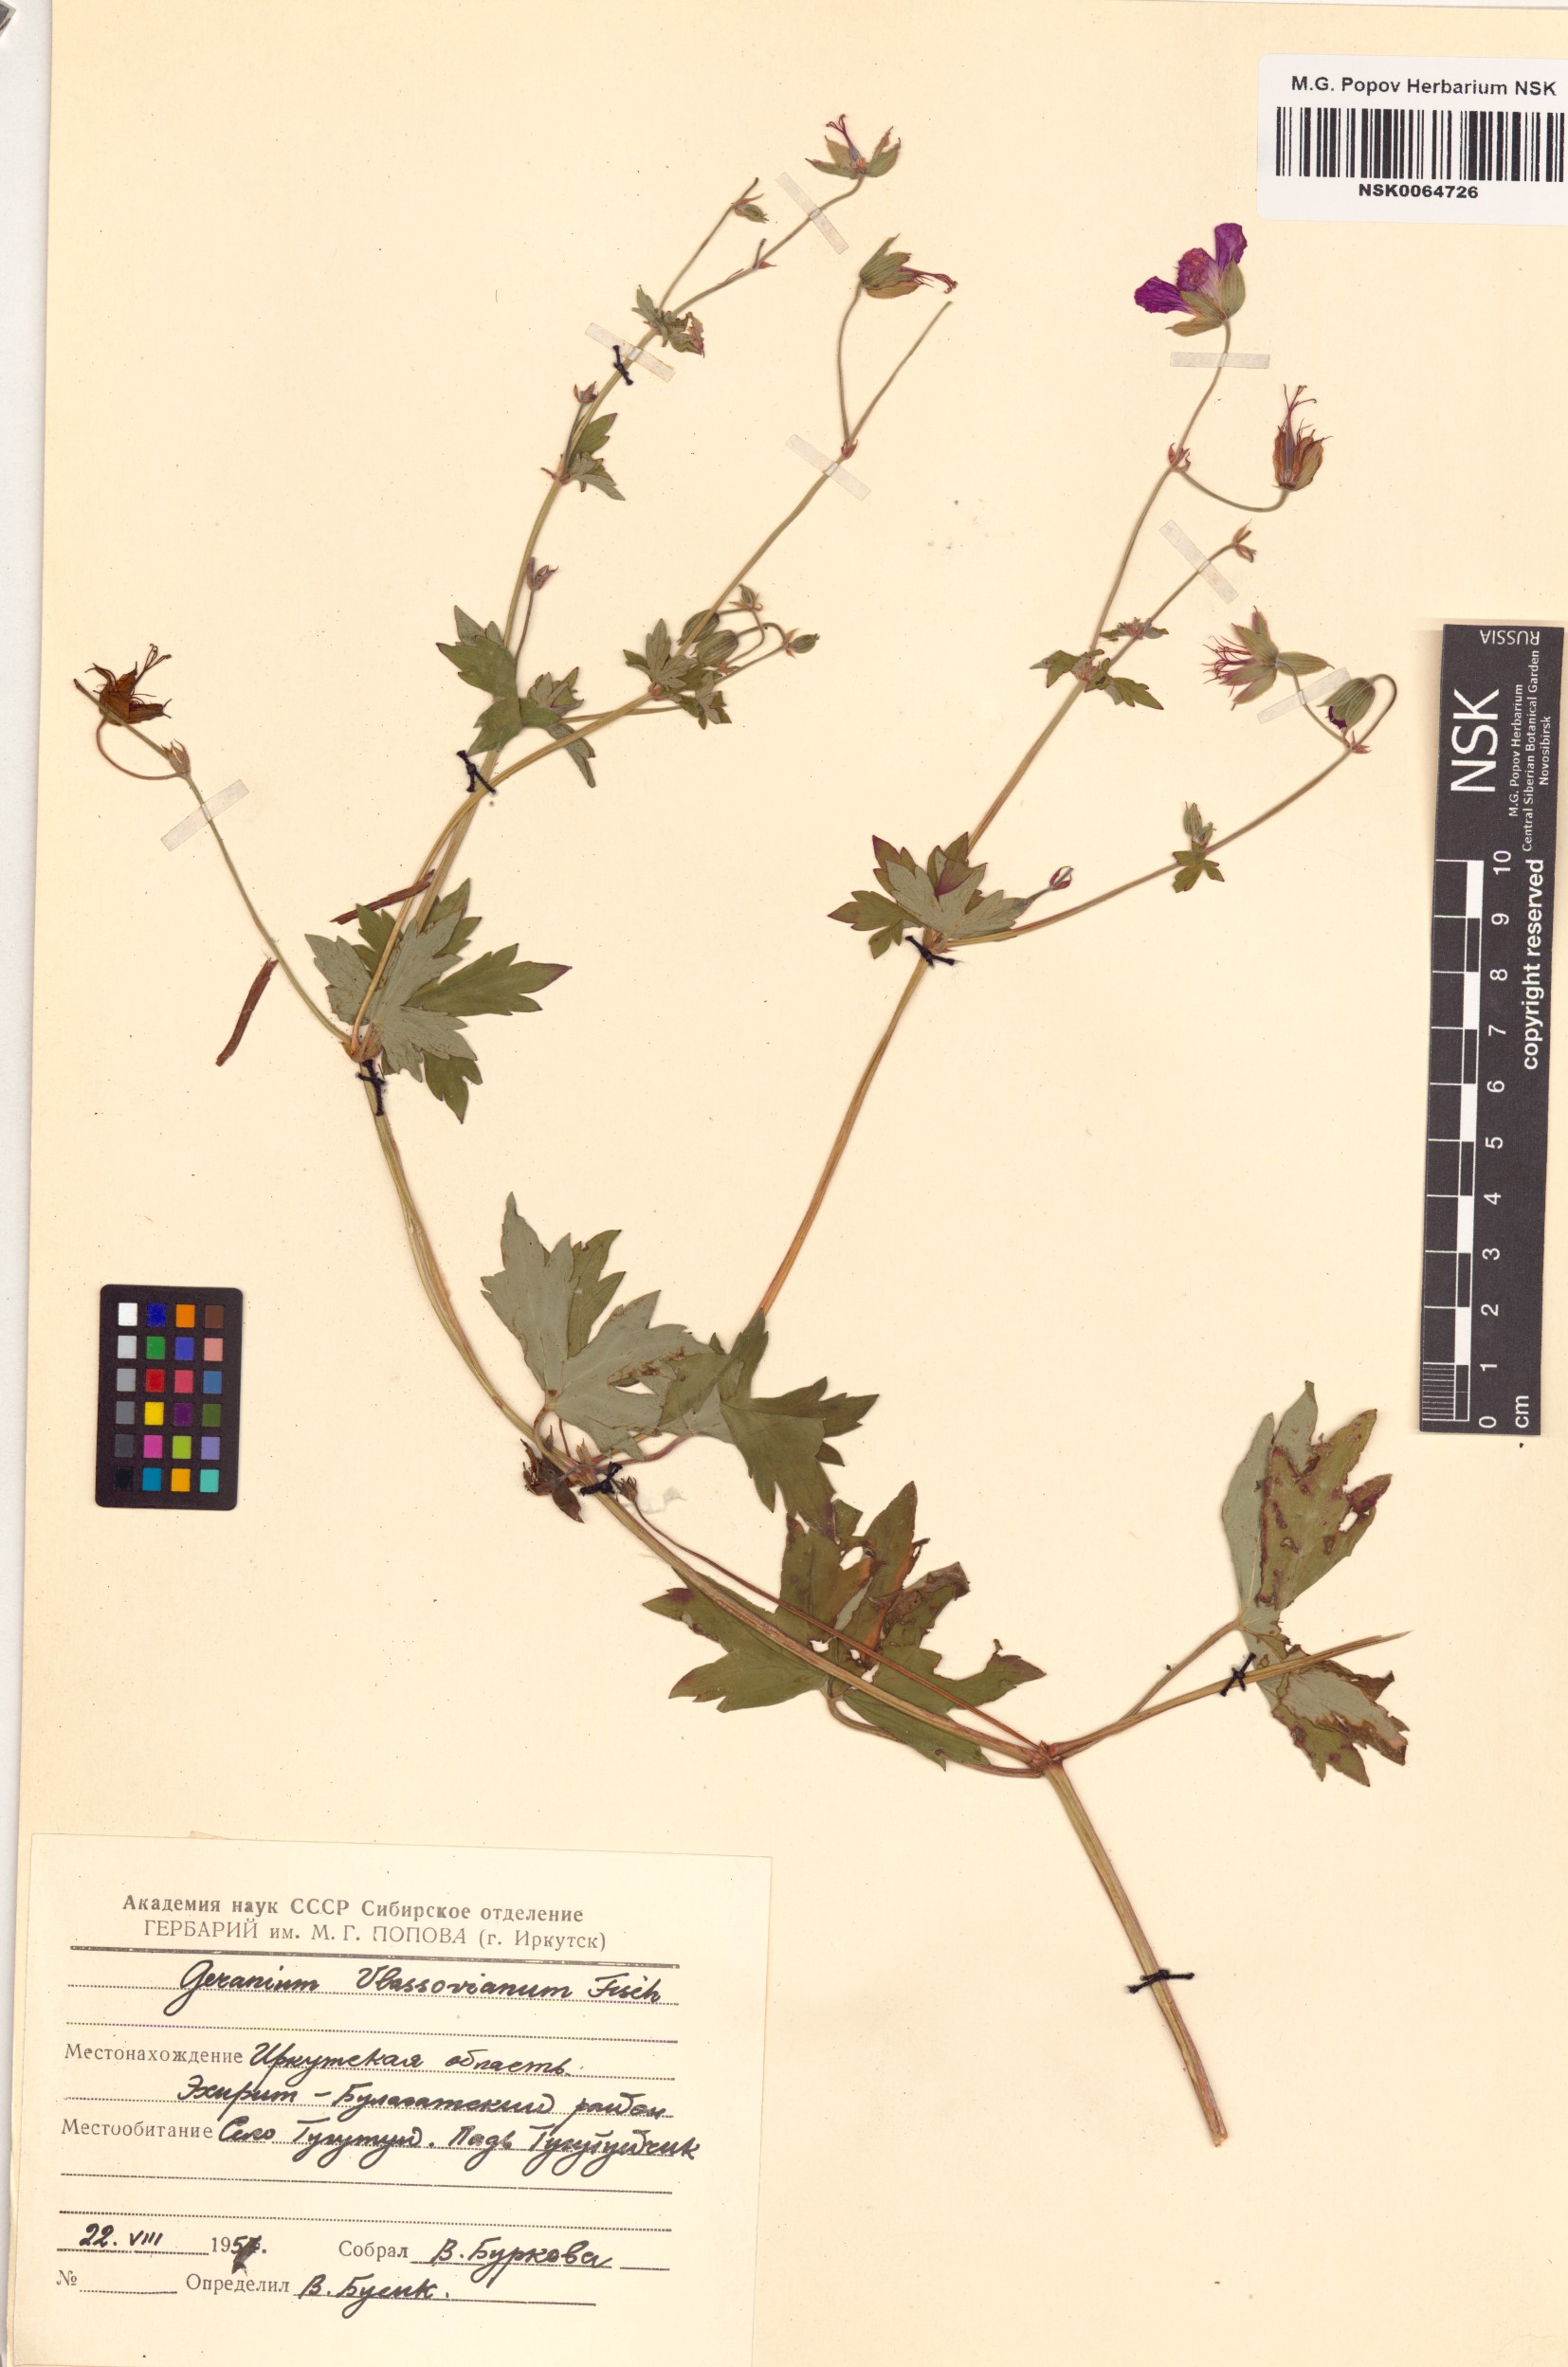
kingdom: Plantae
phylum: Tracheophyta
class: Magnoliopsida
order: Geraniales
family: Geraniaceae
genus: Geranium
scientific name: Geranium wlassovianum
